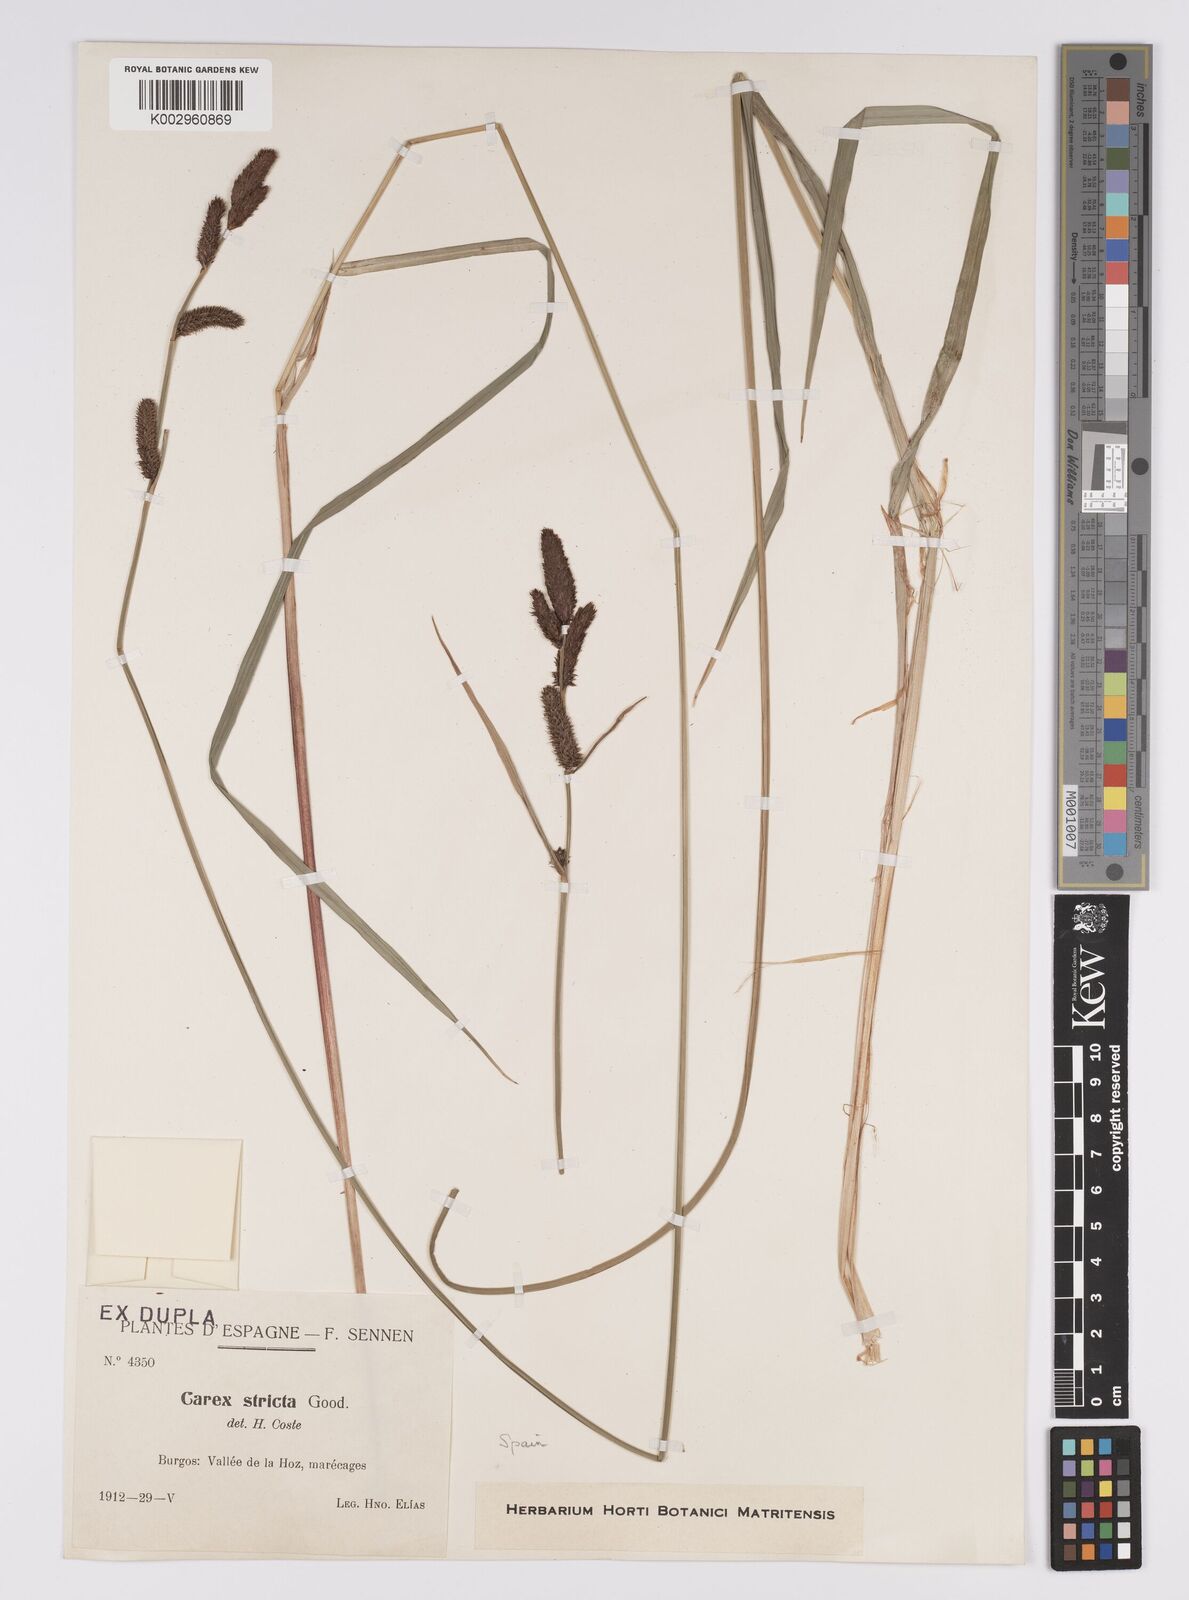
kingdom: Plantae
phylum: Tracheophyta
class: Liliopsida
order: Poales
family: Cyperaceae
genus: Carex
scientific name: Carex acutiformis
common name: Lesser pond-sedge
